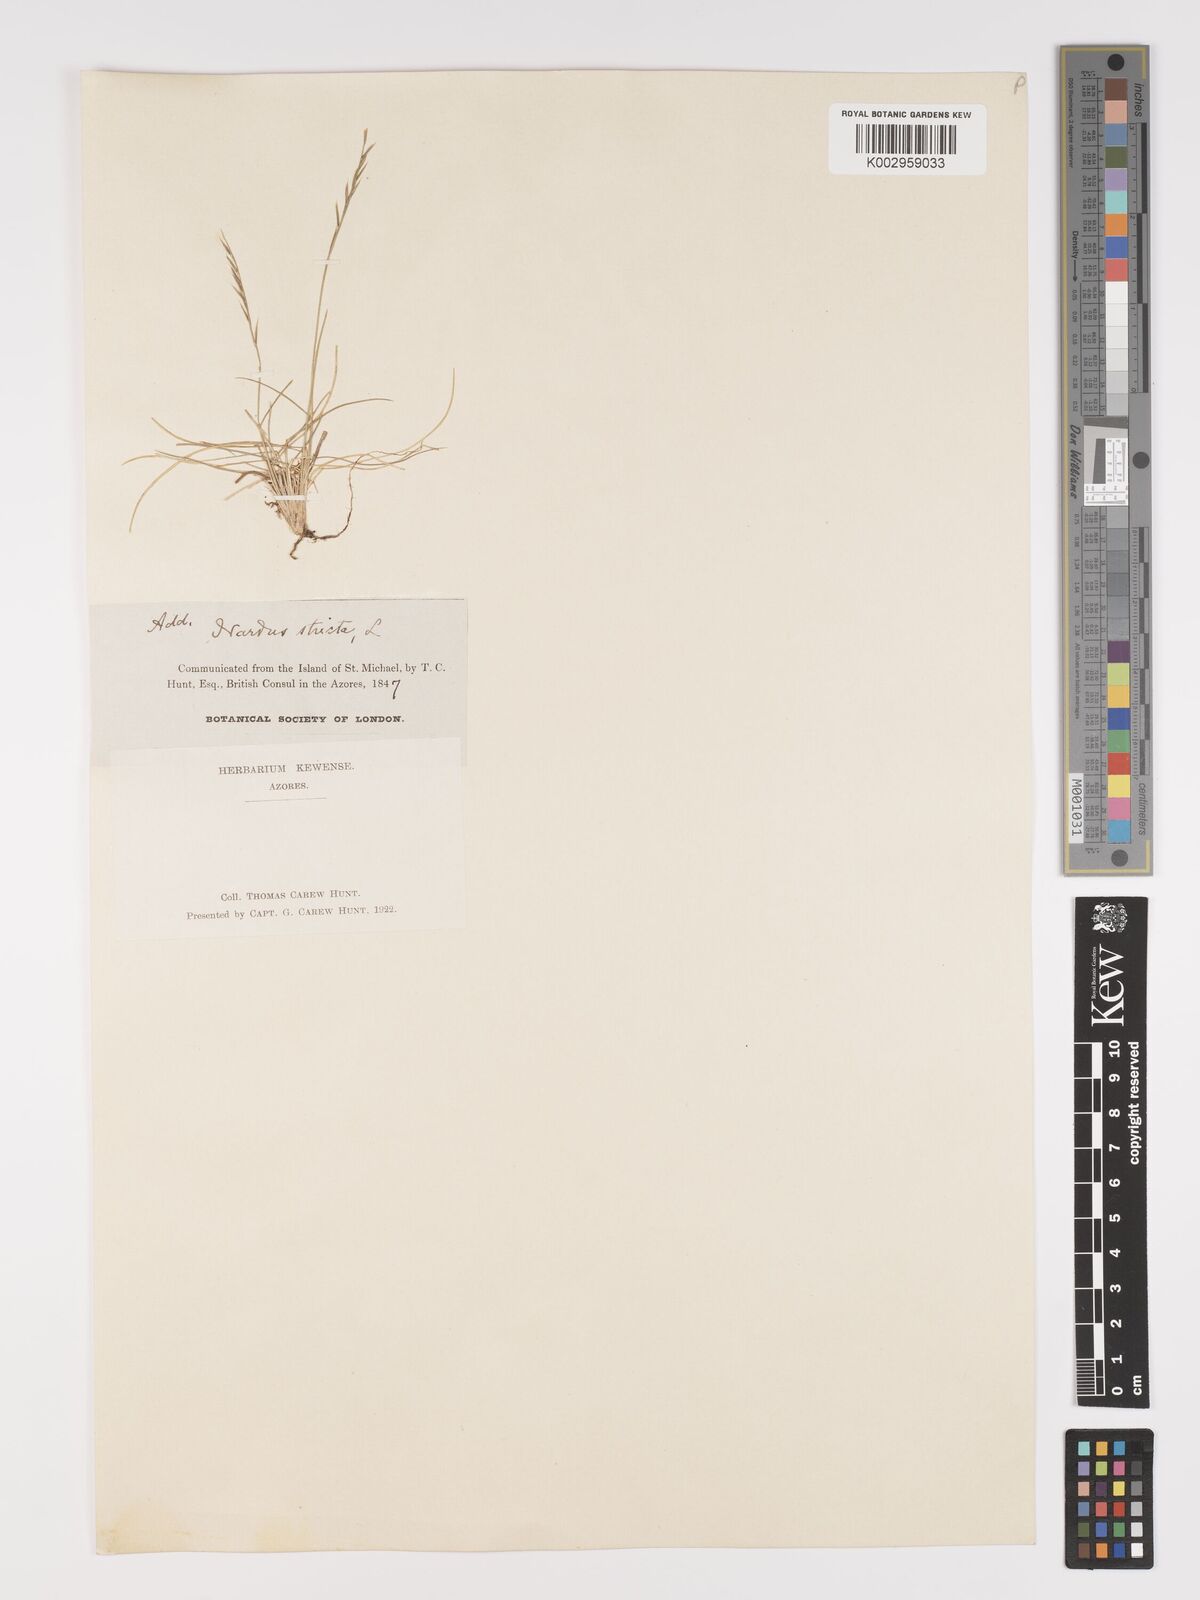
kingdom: Plantae
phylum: Tracheophyta
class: Liliopsida
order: Poales
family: Poaceae
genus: Nardus
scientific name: Nardus stricta
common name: Mat-grass
